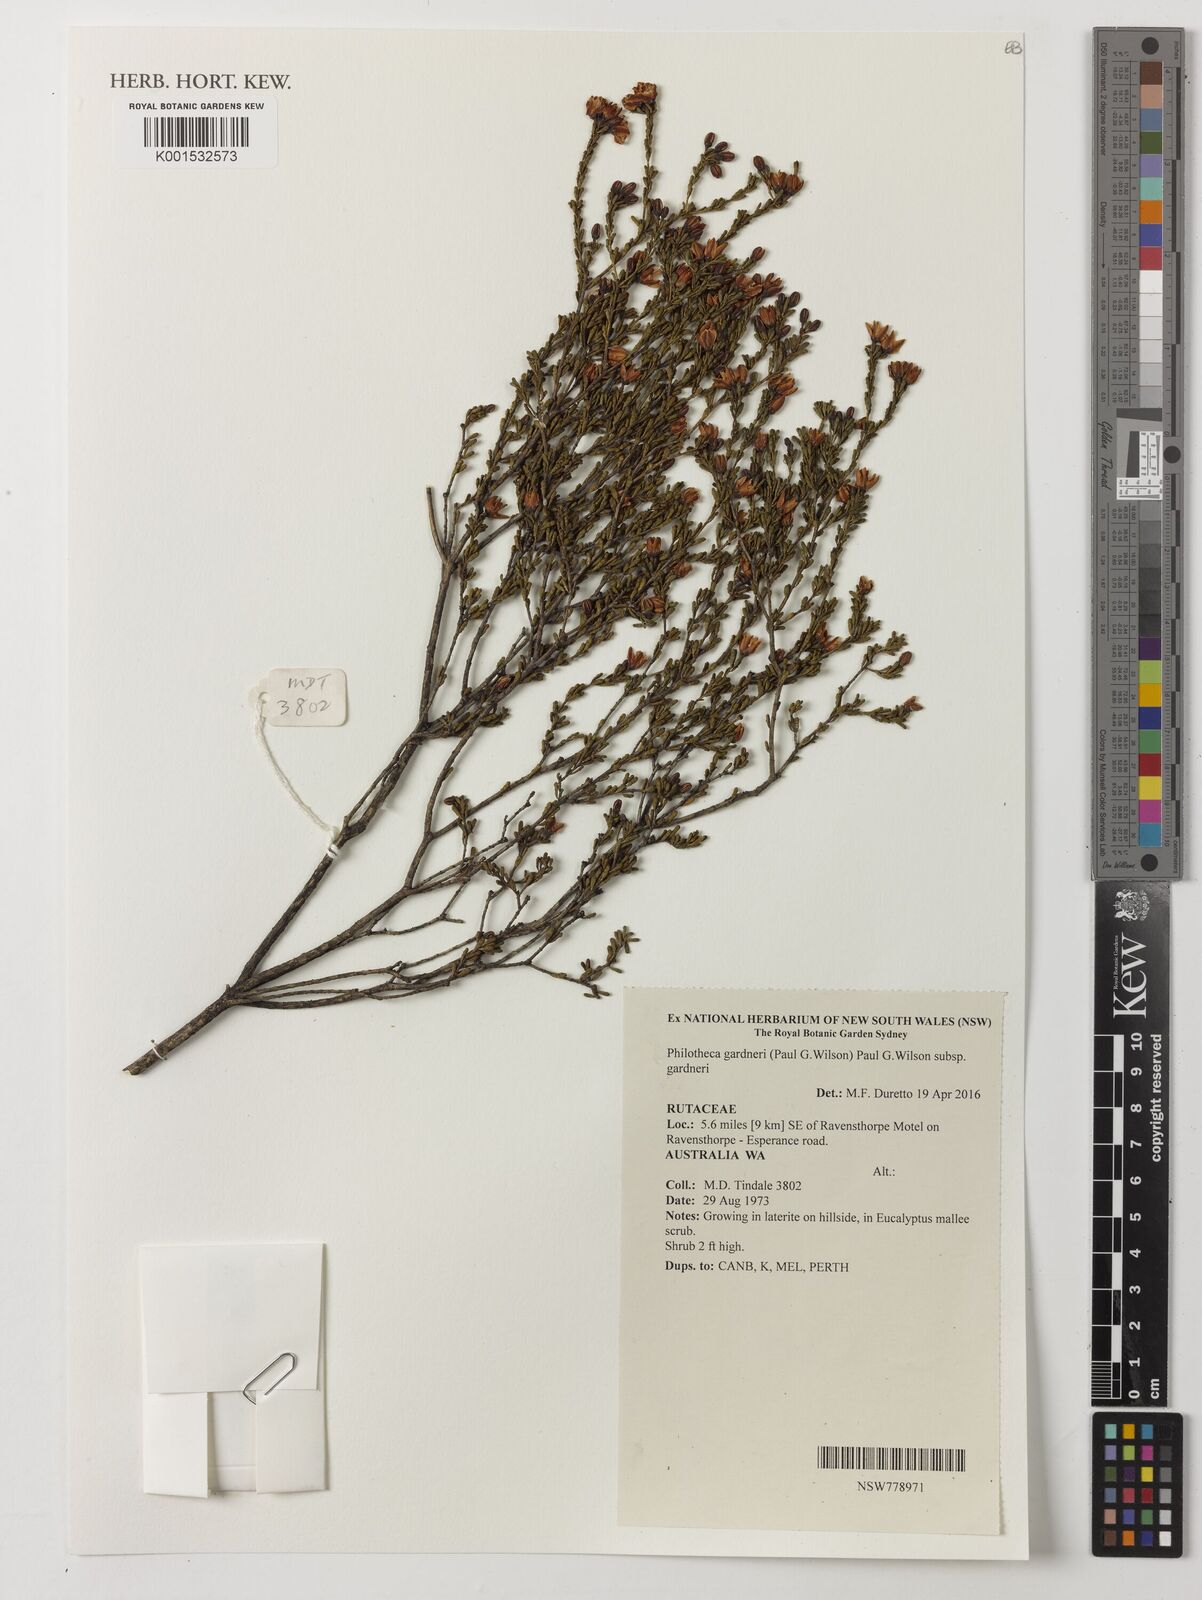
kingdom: Plantae
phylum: Tracheophyta
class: Magnoliopsida
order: Sapindales
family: Rutaceae
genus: Philotheca
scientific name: Philotheca gardneri
